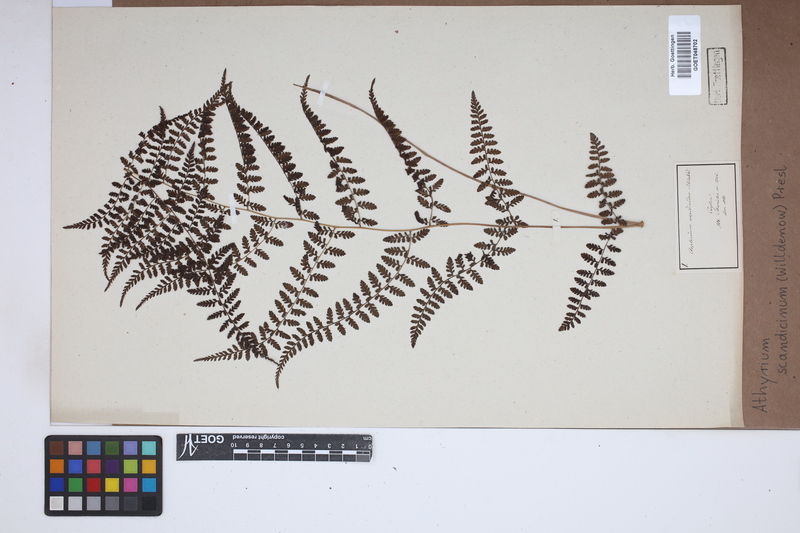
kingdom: Plantae
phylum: Tracheophyta
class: Polypodiopsida
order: Polypodiales
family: Athyriaceae
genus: Athyrium
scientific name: Athyrium scandicinum
